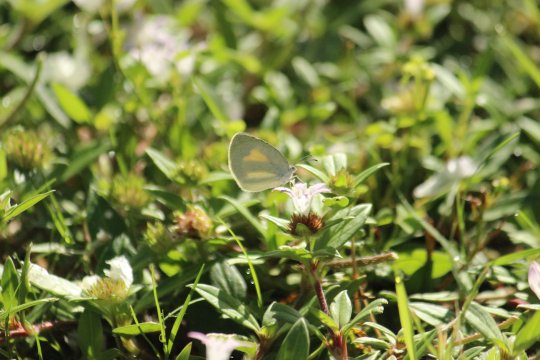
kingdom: Animalia
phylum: Arthropoda
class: Insecta
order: Lepidoptera
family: Pieridae
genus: Eurema
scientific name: Eurema daira
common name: Barred Yellow
